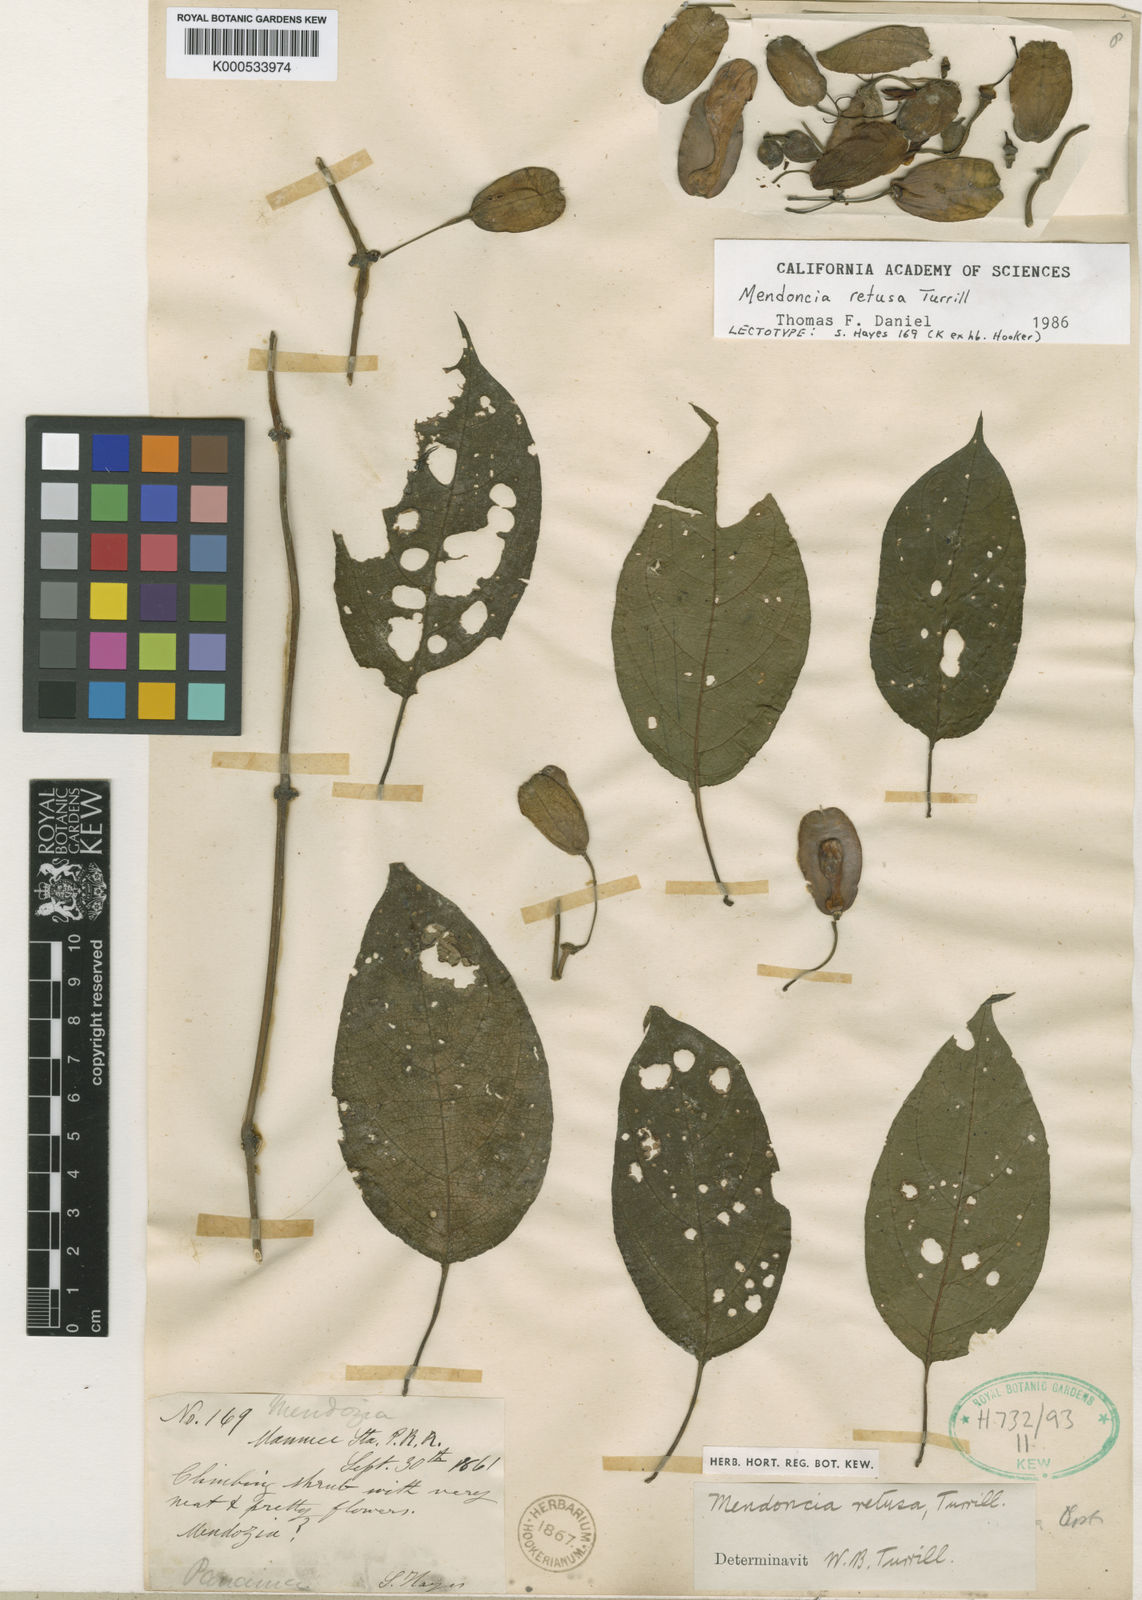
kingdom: Plantae
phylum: Tracheophyta
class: Magnoliopsida
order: Lamiales
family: Acanthaceae
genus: Mendoncia
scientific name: Mendoncia retusa
